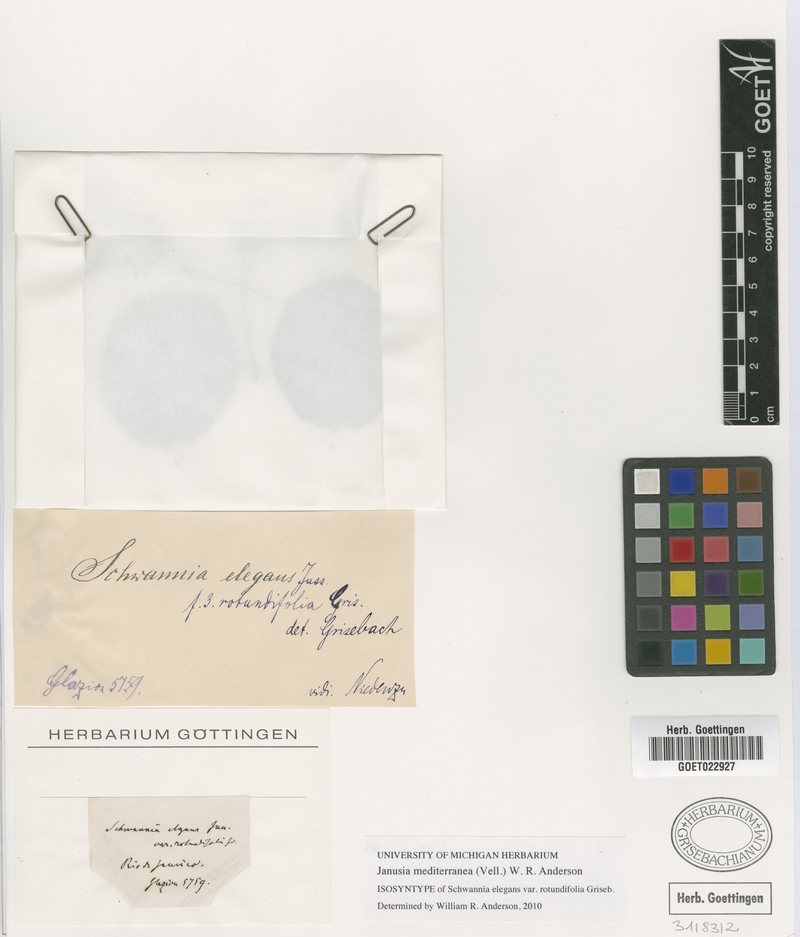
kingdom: Plantae
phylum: Tracheophyta
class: Magnoliopsida
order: Malpighiales
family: Malpighiaceae
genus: Janusia
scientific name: Janusia mediterranea
